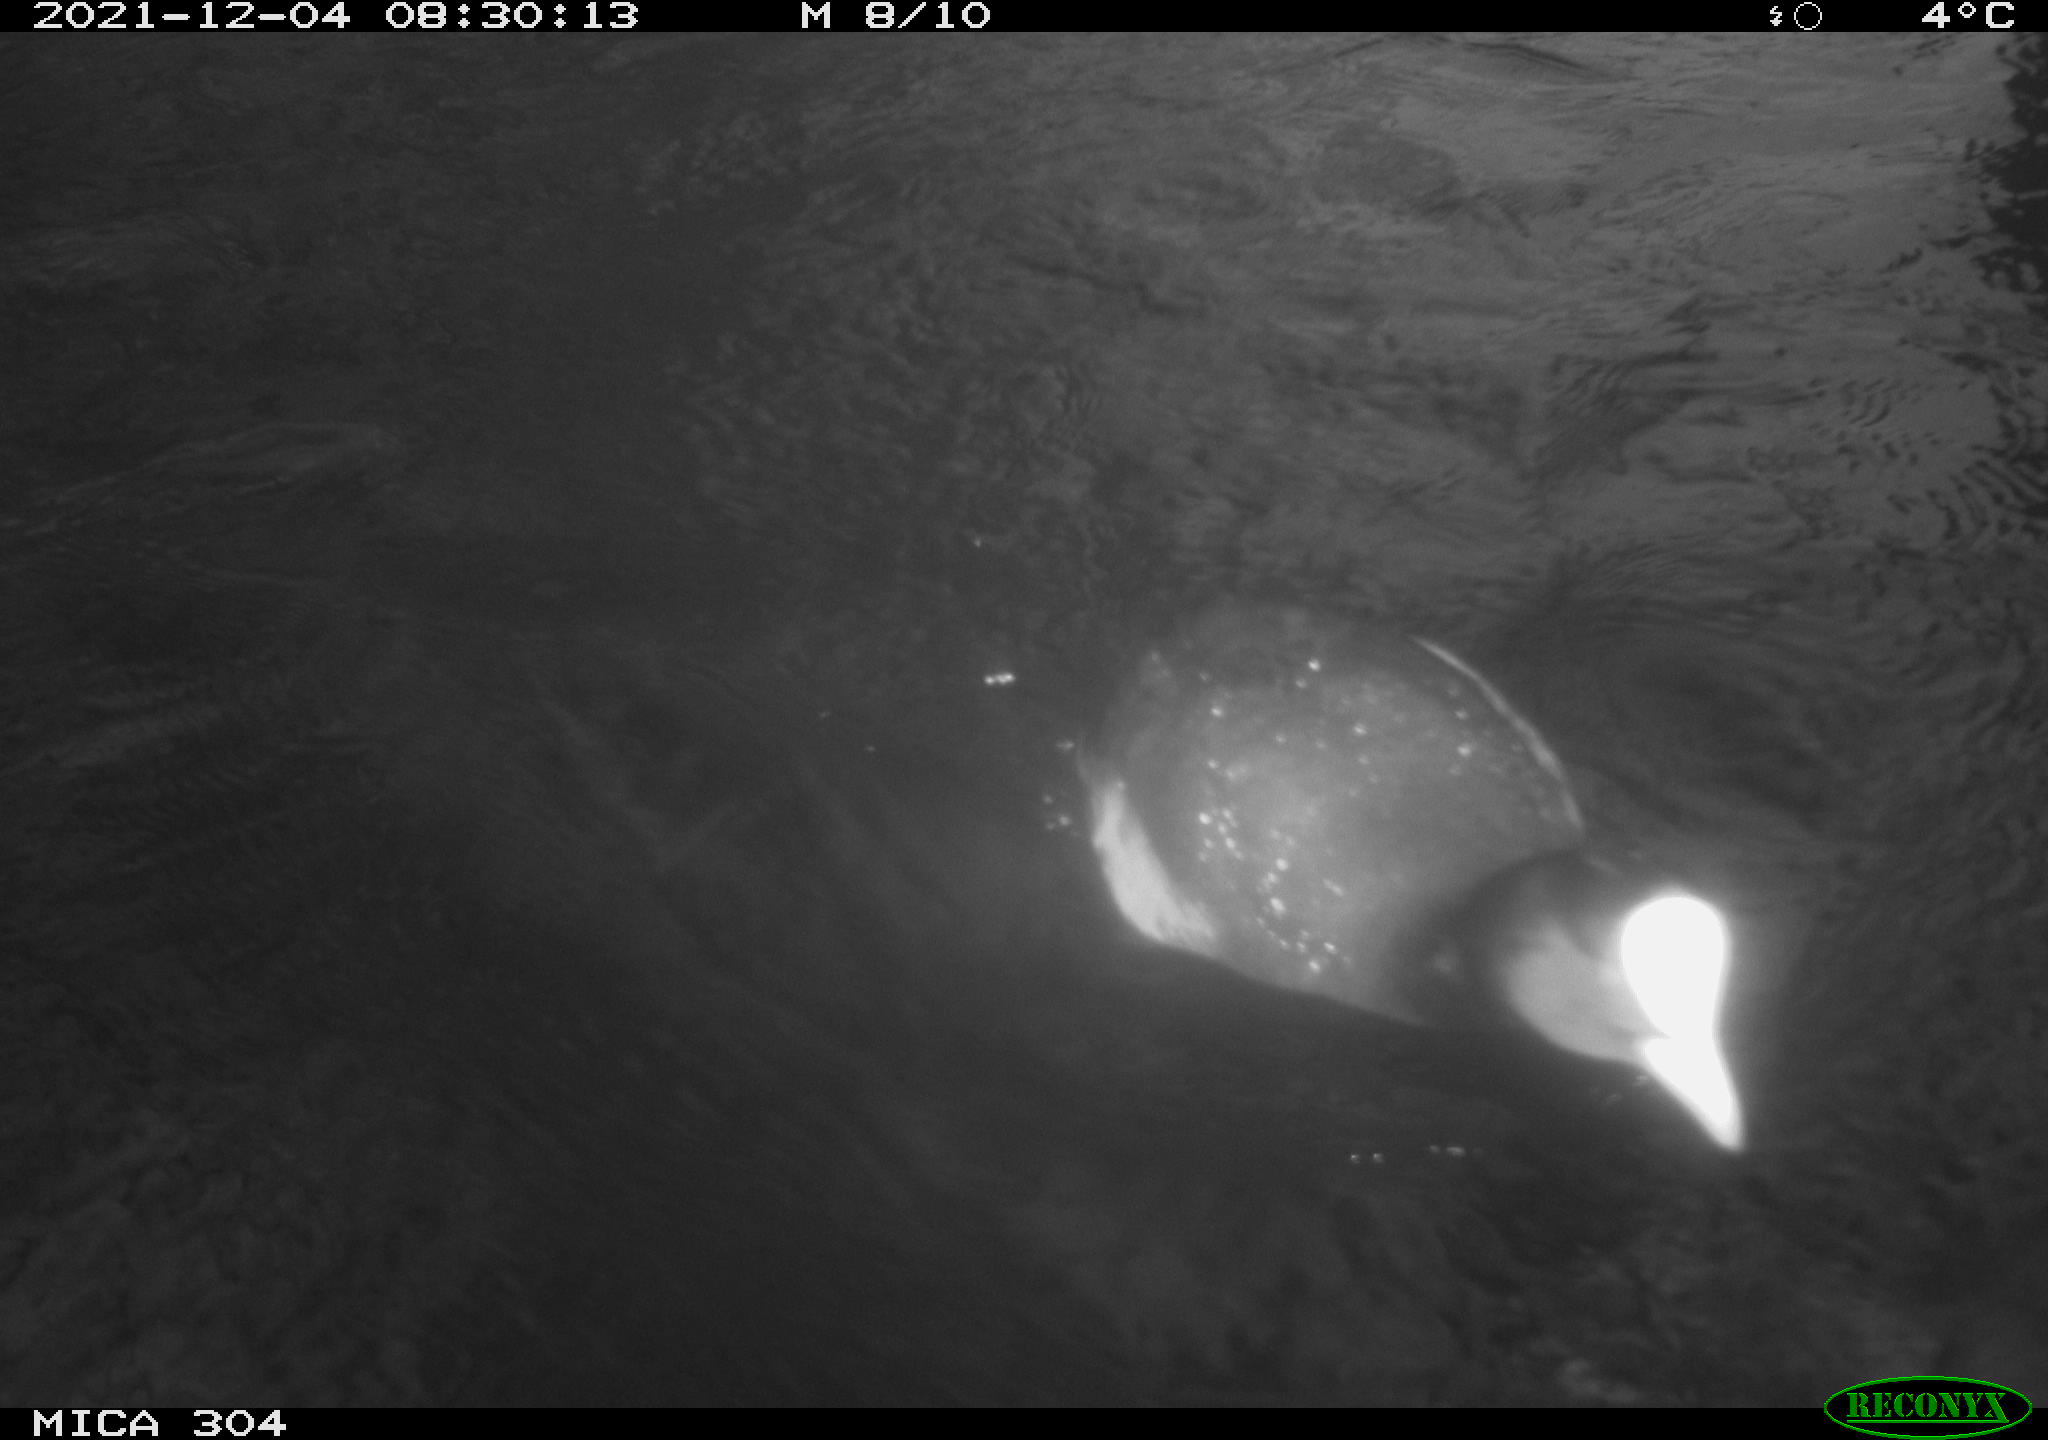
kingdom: Animalia
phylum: Chordata
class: Aves
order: Gruiformes
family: Rallidae
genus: Fulica
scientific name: Fulica atra
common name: Eurasian coot
